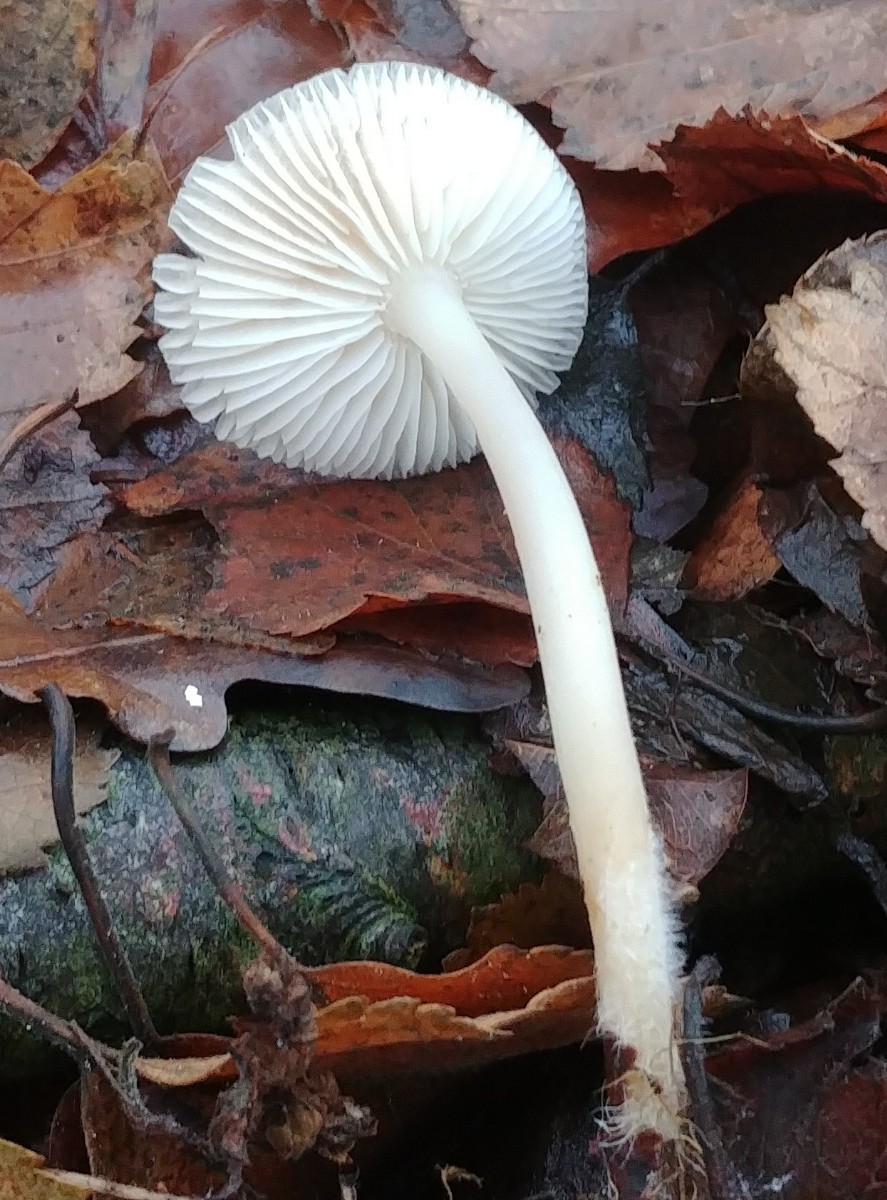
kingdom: Fungi
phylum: Basidiomycota
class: Agaricomycetes
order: Agaricales
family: Mycenaceae
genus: Mycena
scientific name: Mycena
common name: huesvamp
